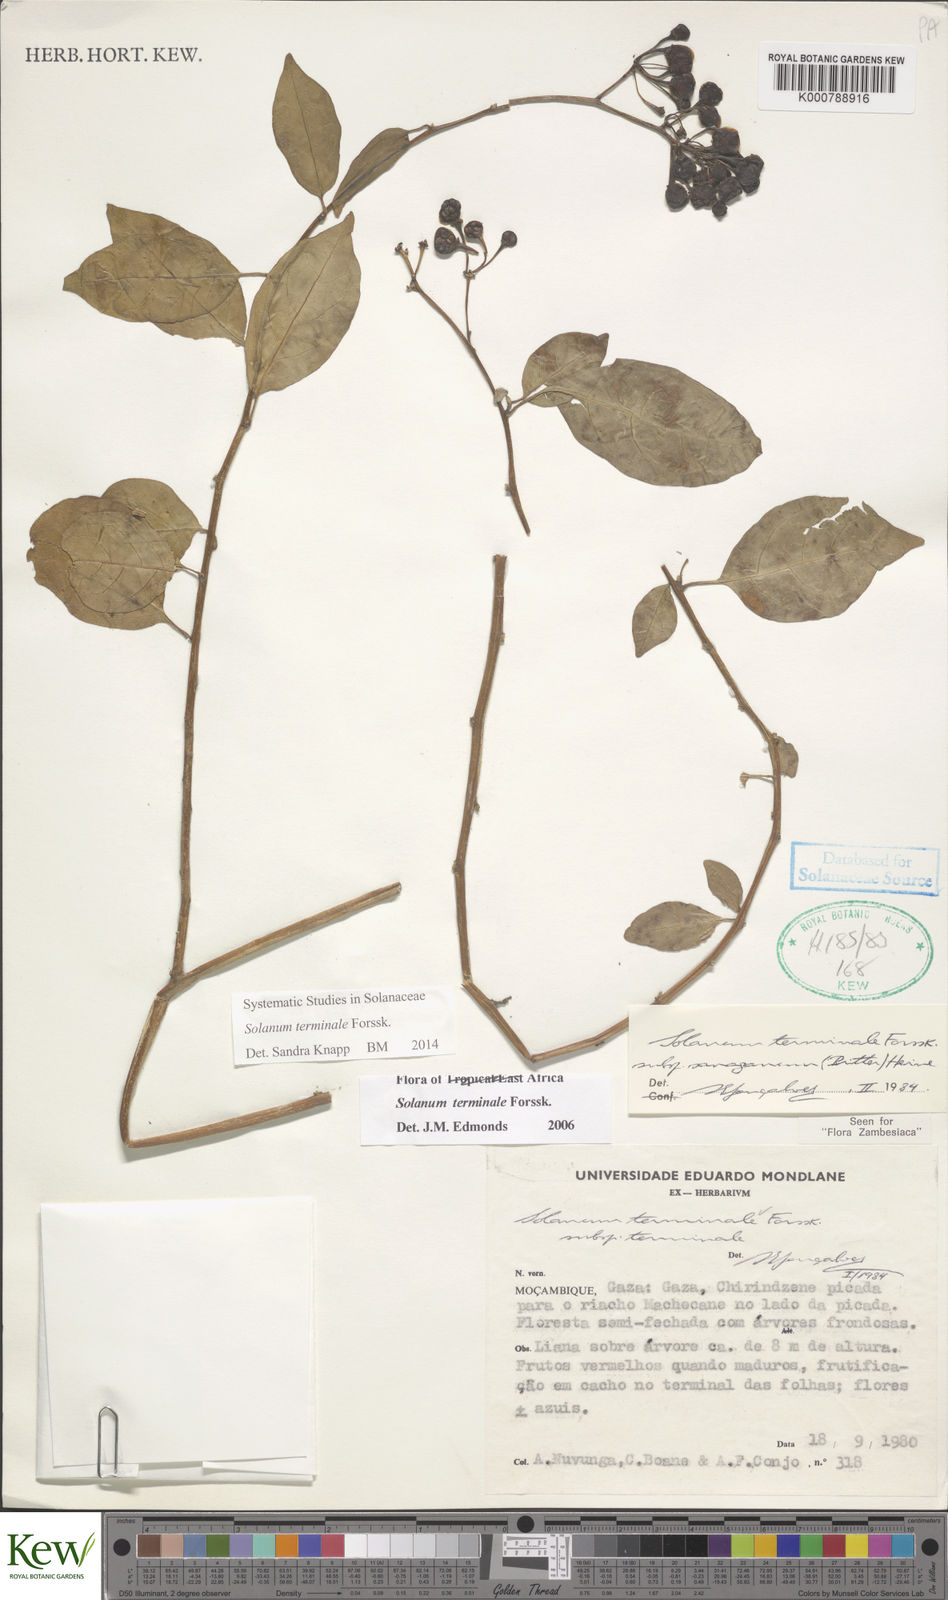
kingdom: Plantae
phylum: Tracheophyta
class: Magnoliopsida
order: Solanales
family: Solanaceae
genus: Solanum
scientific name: Solanum terminale
